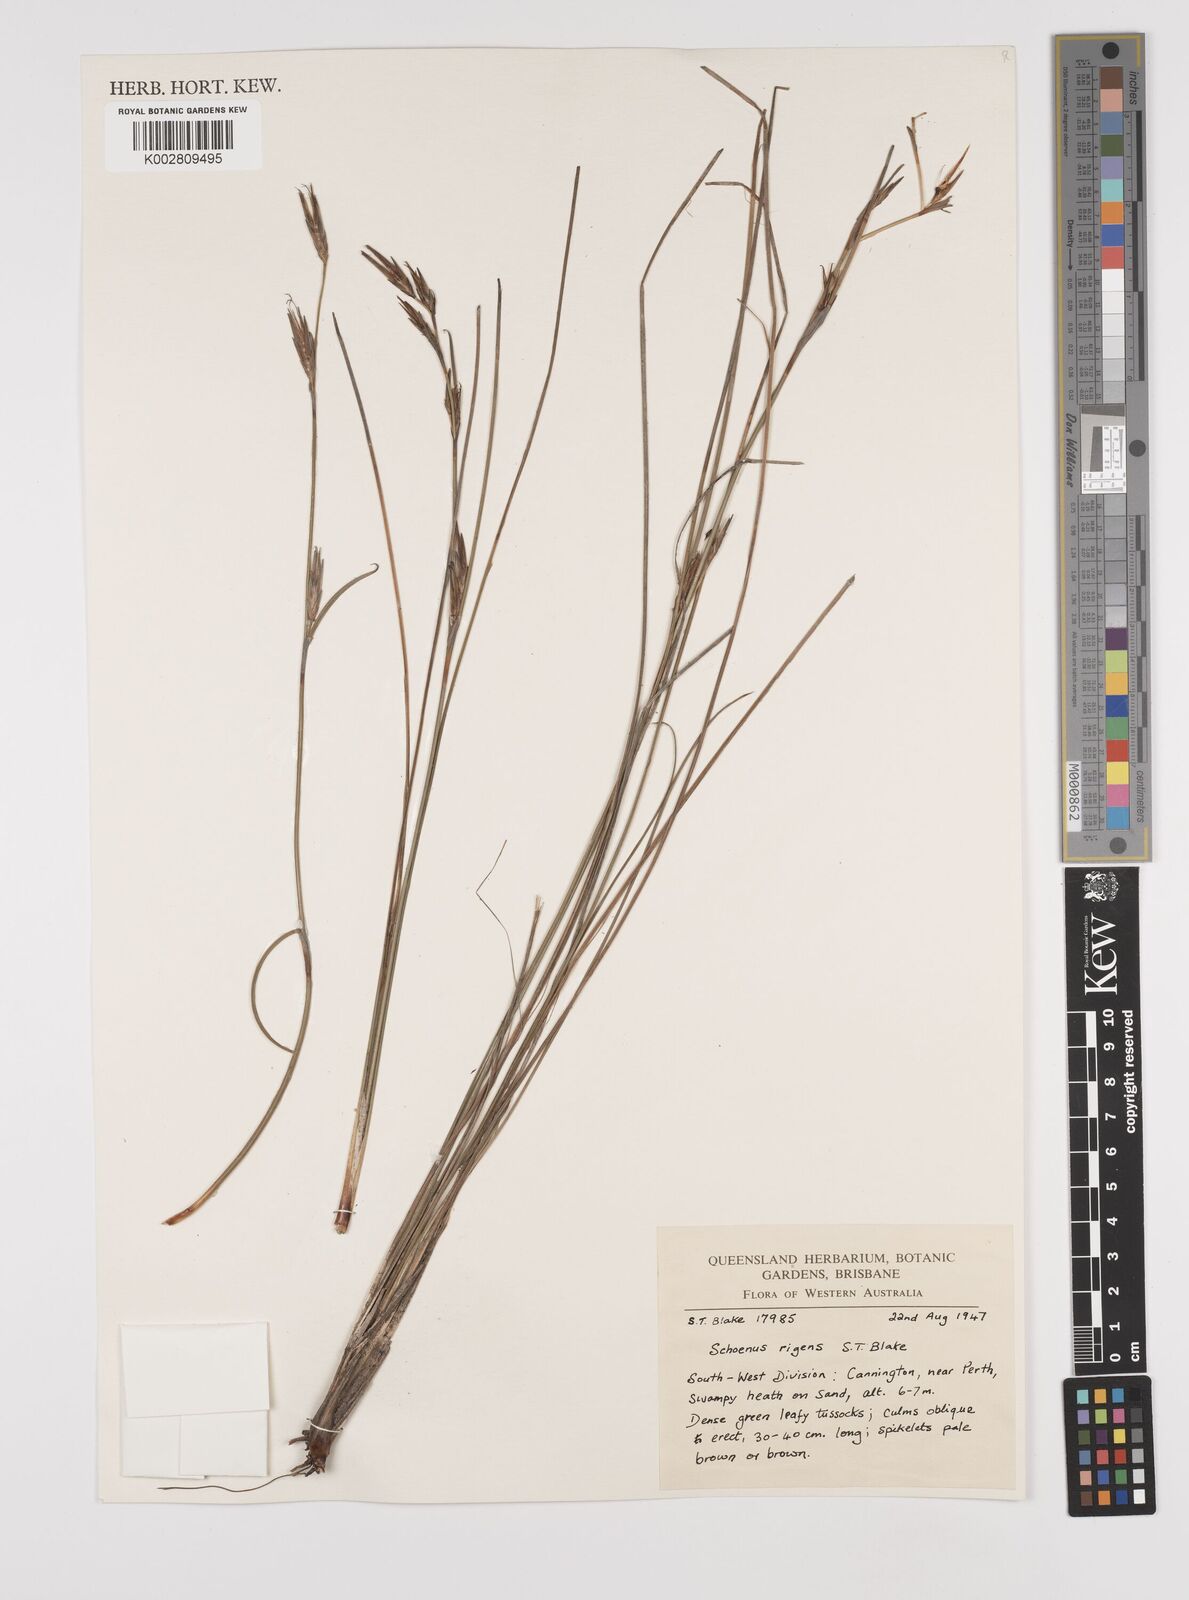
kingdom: Plantae
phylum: Tracheophyta
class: Liliopsida
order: Poales
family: Cyperaceae
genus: Schoenus
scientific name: Schoenus rigens
